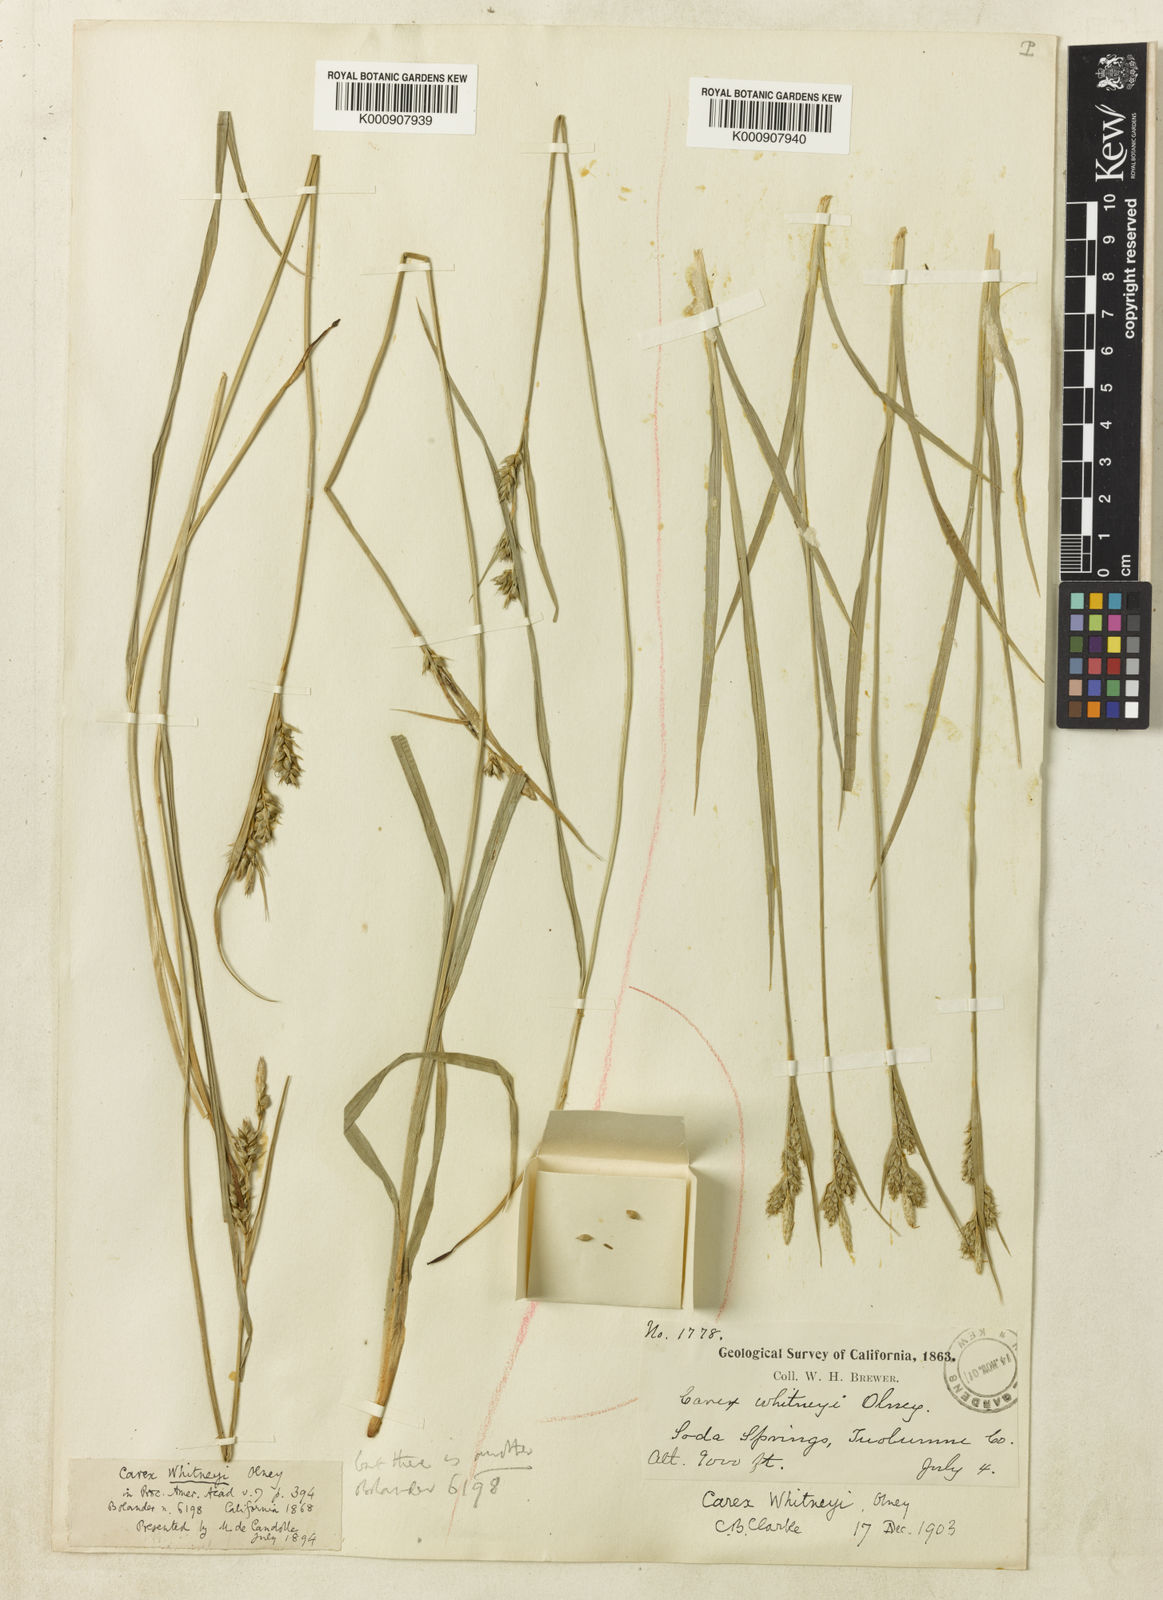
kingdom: Plantae
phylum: Tracheophyta
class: Liliopsida
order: Poales
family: Cyperaceae
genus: Carex
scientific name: Carex whitneyi
